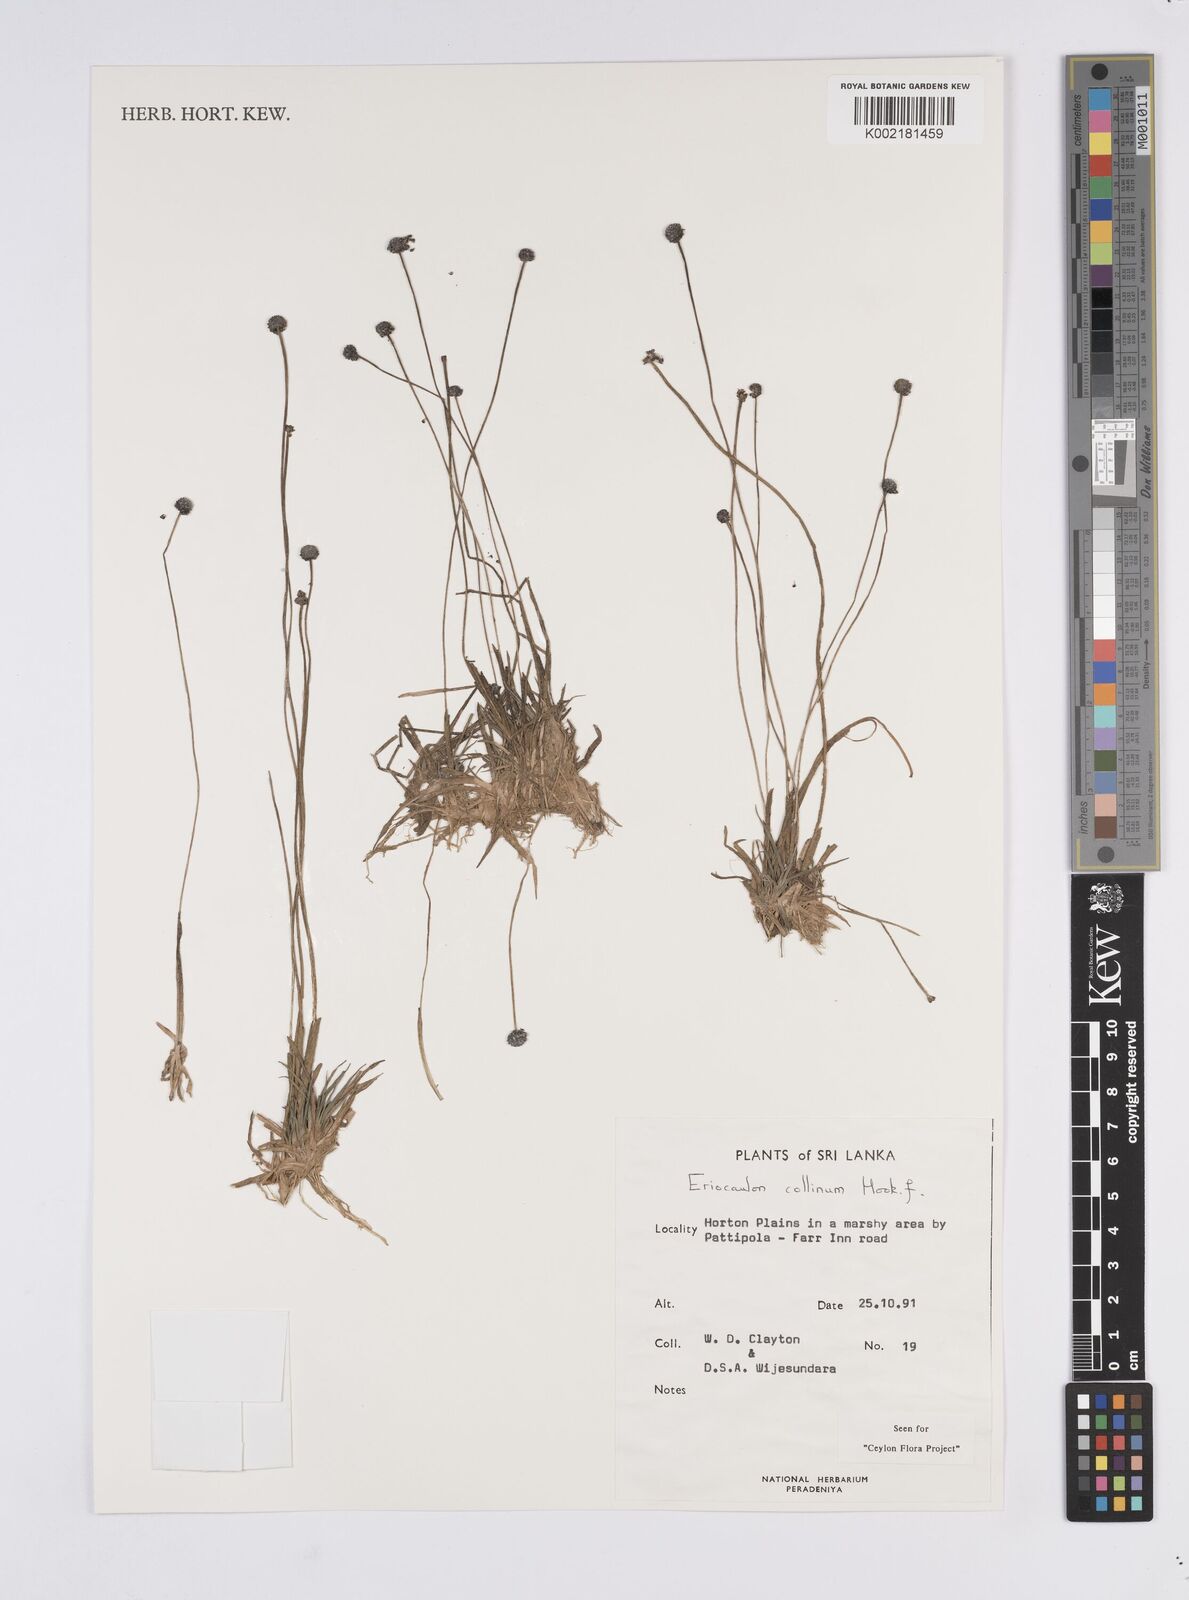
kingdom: Plantae
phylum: Tracheophyta
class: Liliopsida
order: Poales
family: Eriocaulaceae
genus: Eriocaulon
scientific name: Eriocaulon odoratum
